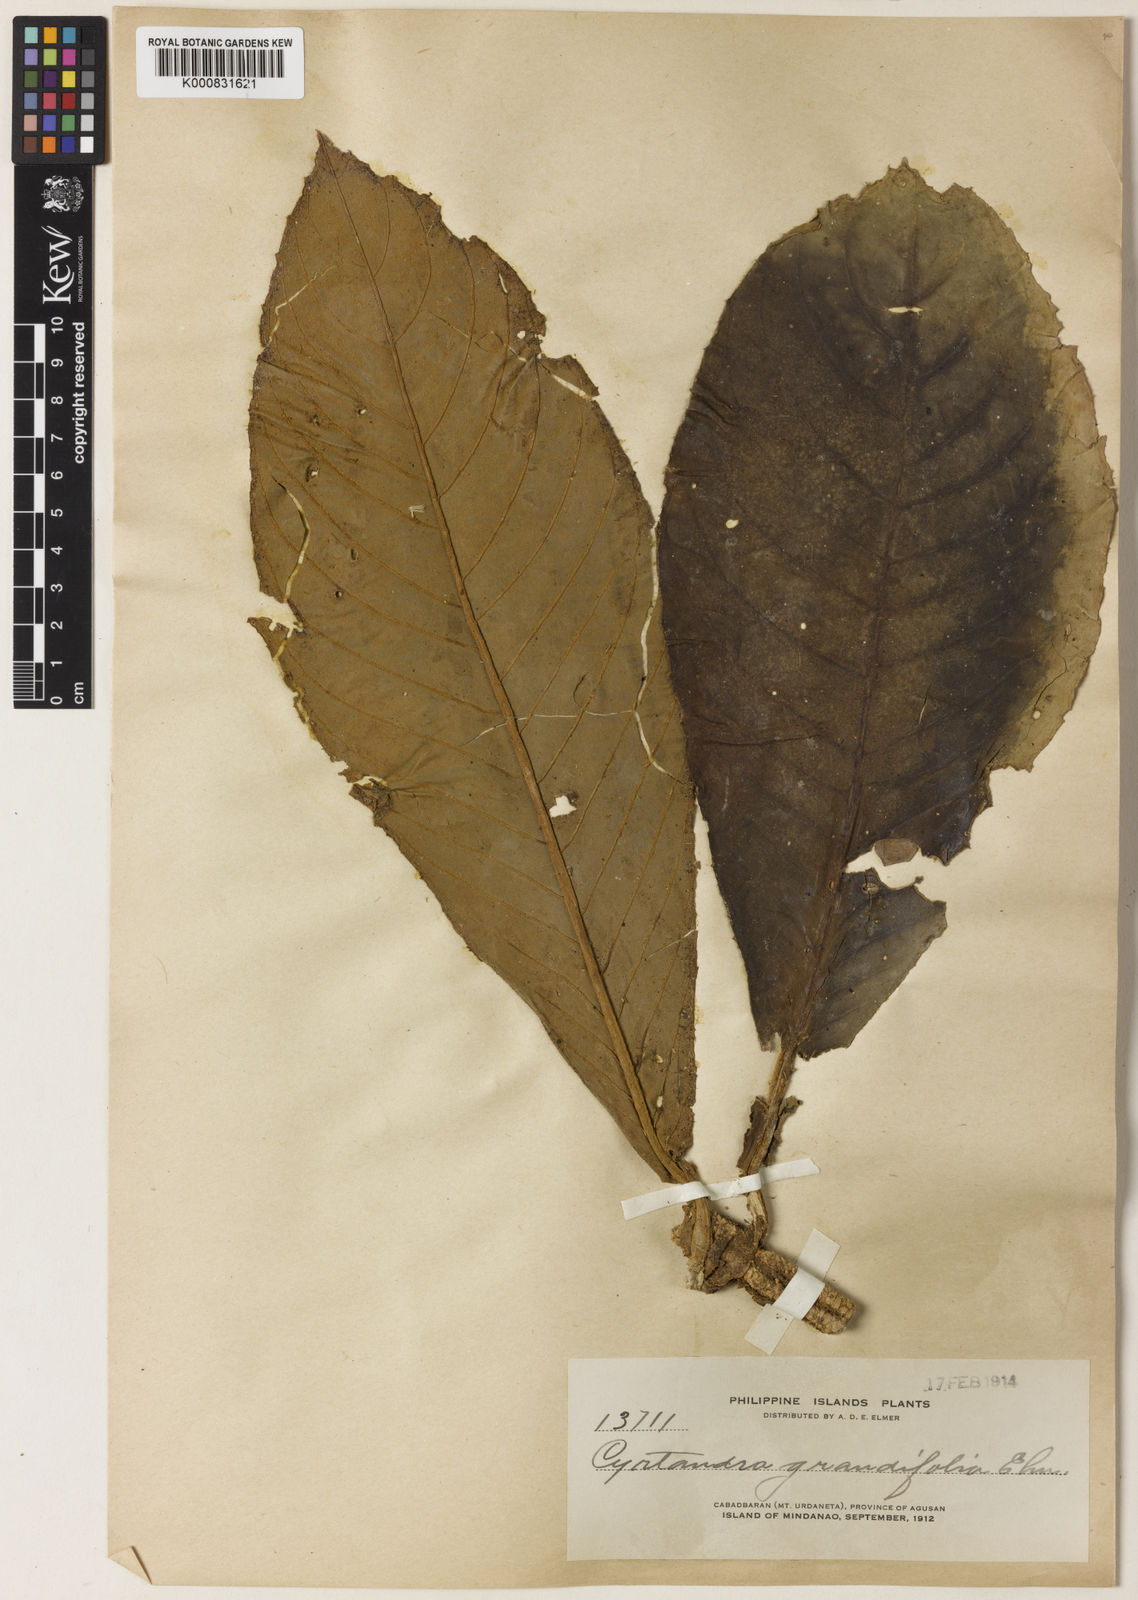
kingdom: Plantae
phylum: Tracheophyta
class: Magnoliopsida
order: Lamiales
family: Gesneriaceae
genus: Cyrtandra
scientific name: Cyrtandra grandifolia
